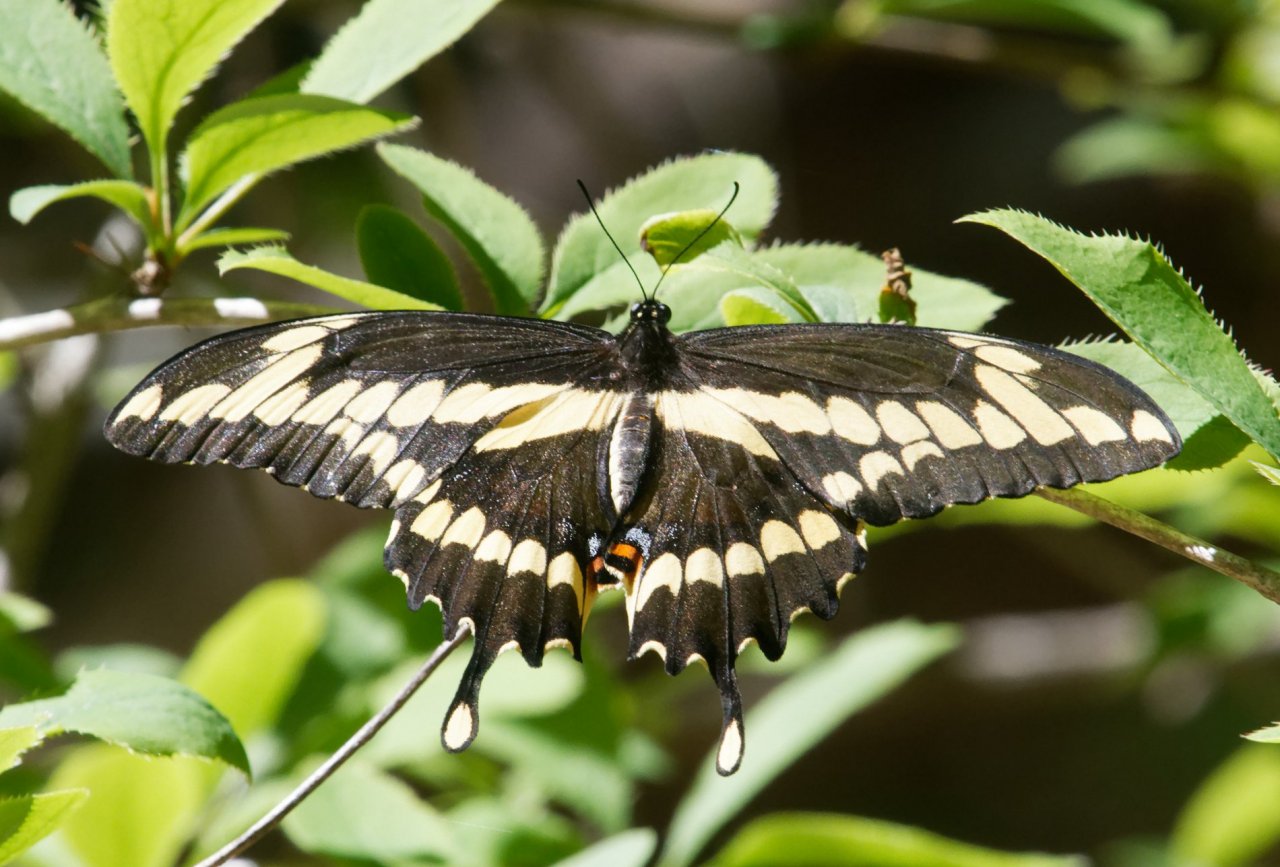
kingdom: Animalia
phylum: Arthropoda
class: Insecta
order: Lepidoptera
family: Papilionidae
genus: Papilio
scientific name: Papilio cresphontes
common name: Eastern Giant Swallowtail
